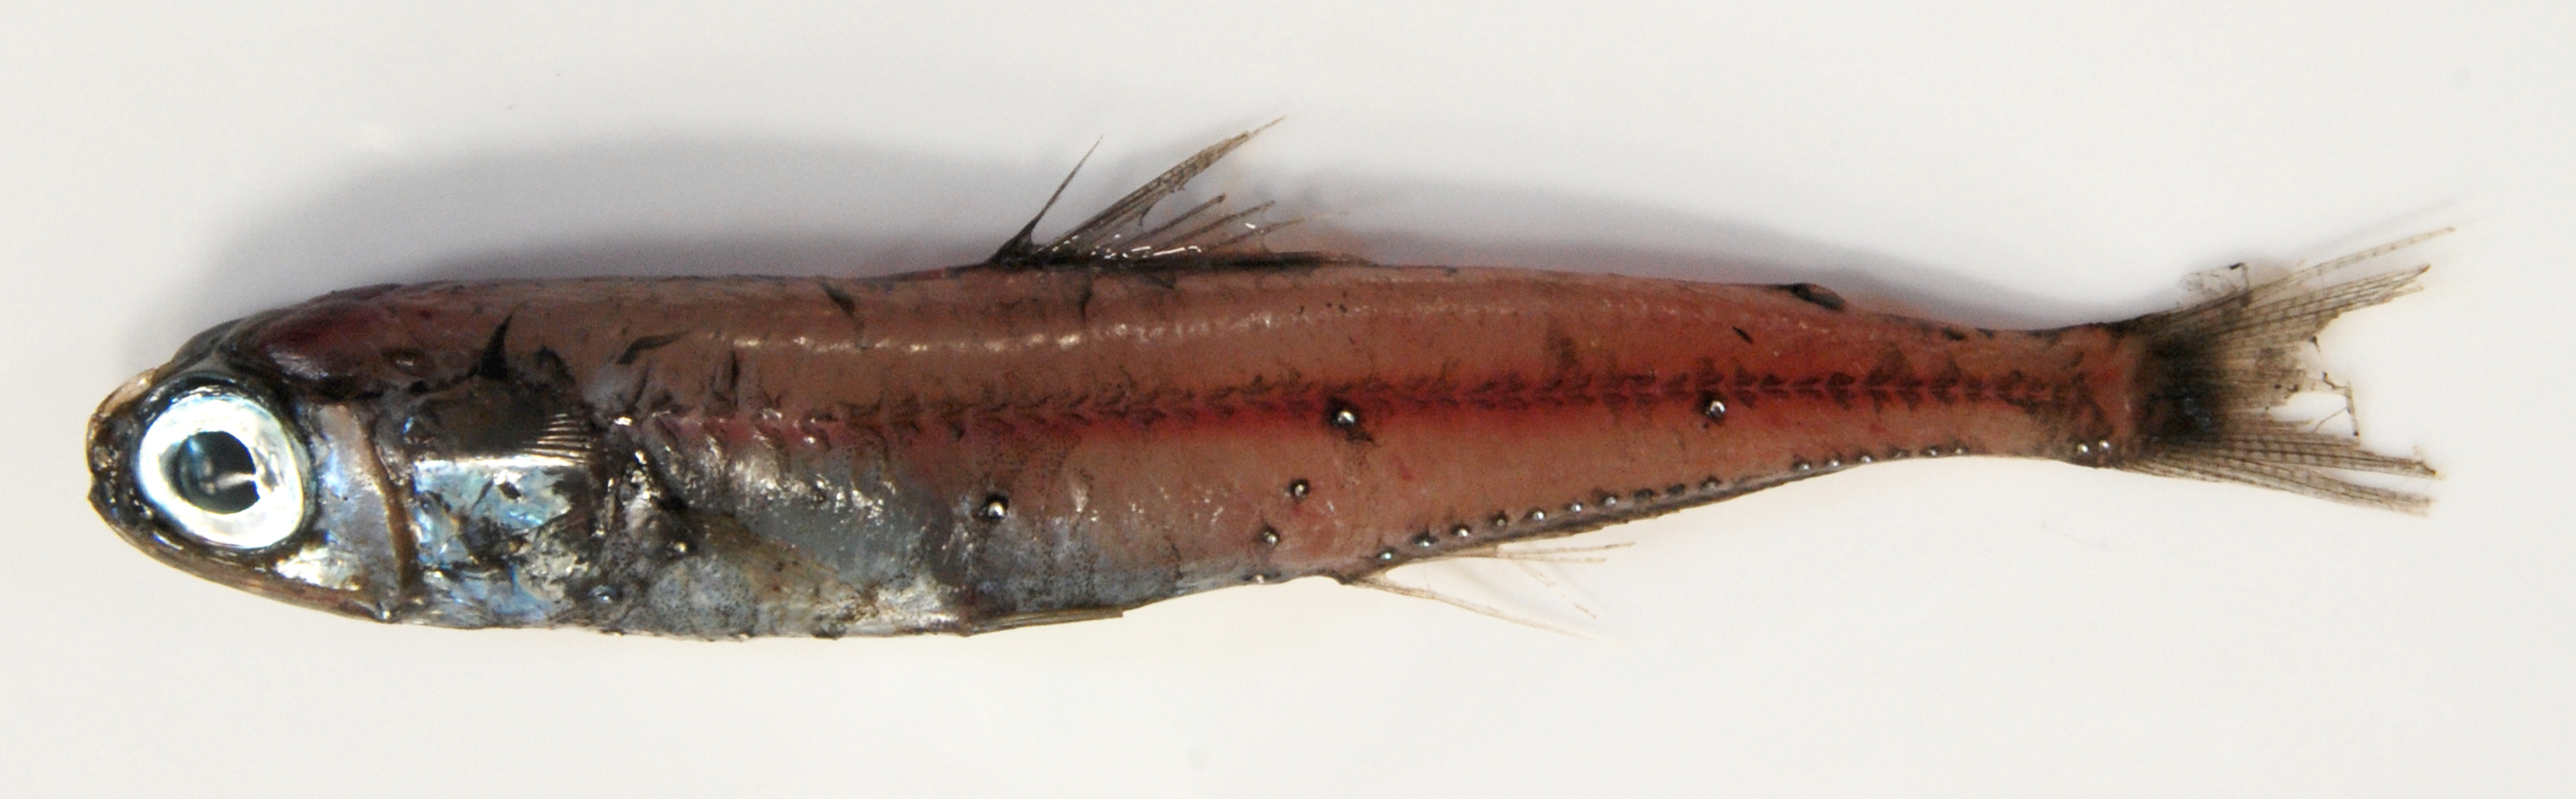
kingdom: Animalia
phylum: Chordata
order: Myctophiformes
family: Myctophidae
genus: Myctophum
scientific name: Myctophum aurolaternatum
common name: Golden lanternfish
